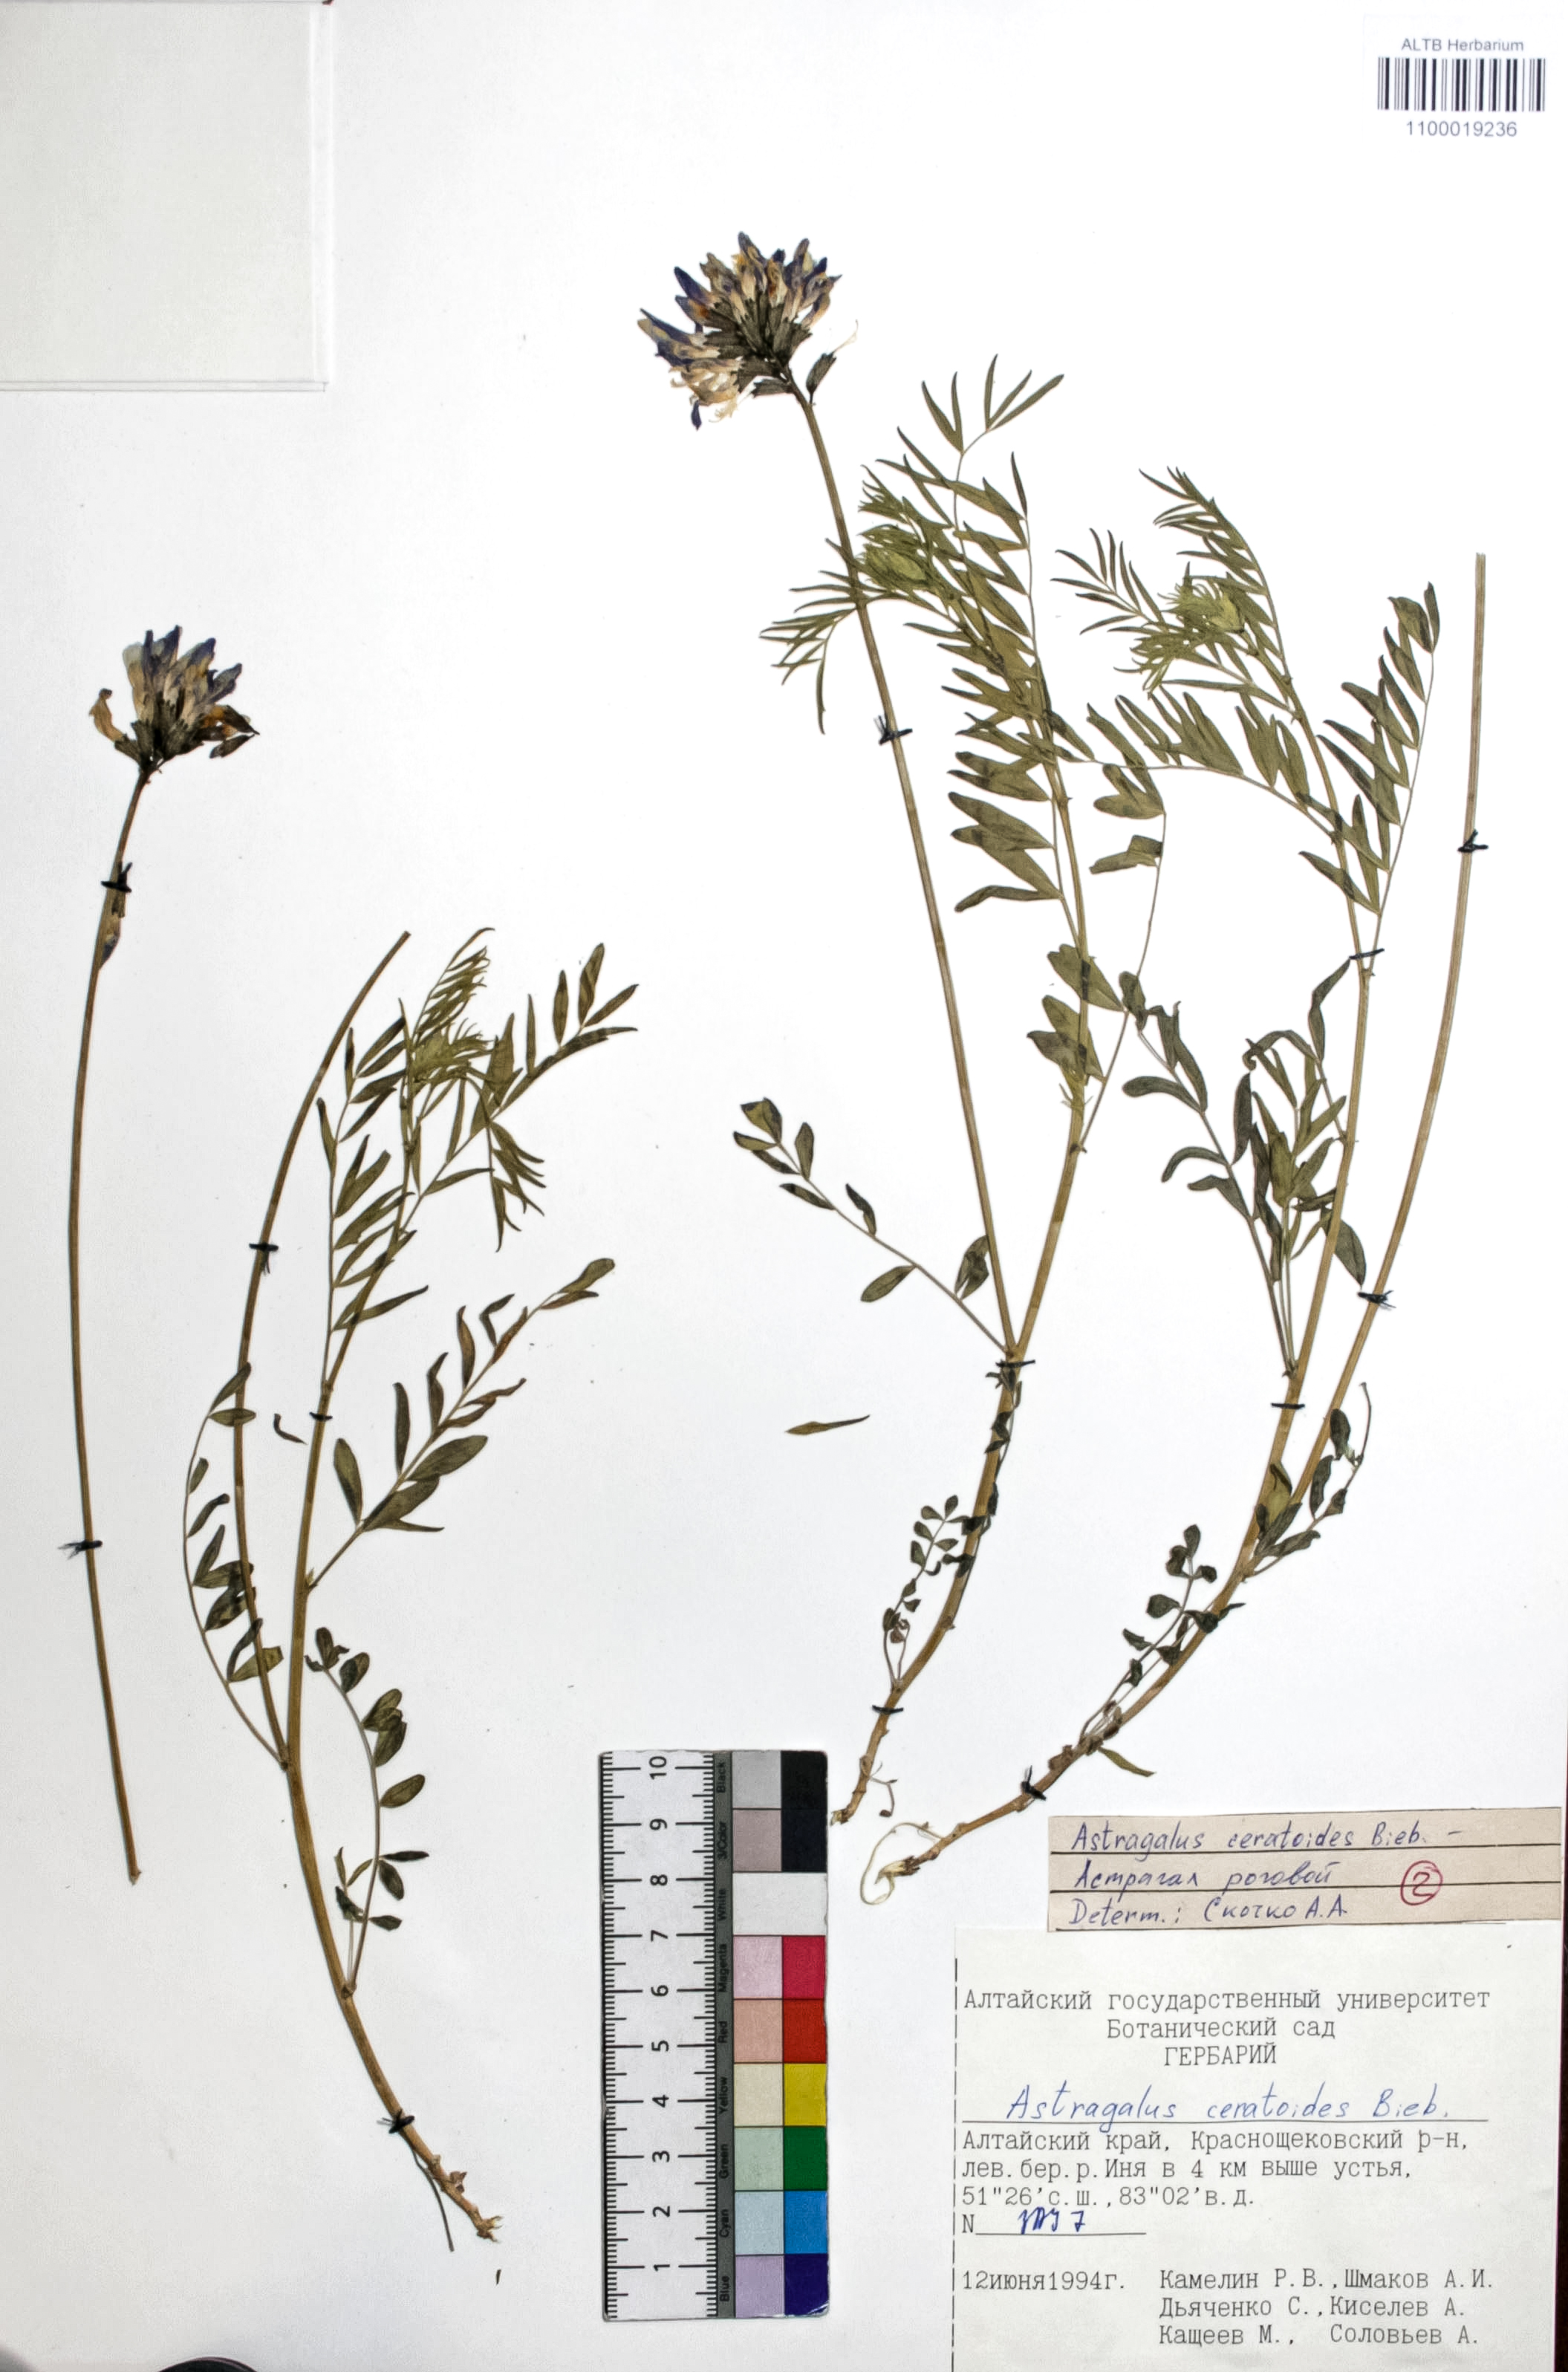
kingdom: Plantae
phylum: Tracheophyta
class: Magnoliopsida
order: Fabales
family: Fabaceae
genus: Astragalus
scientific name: Astragalus ceratoides
